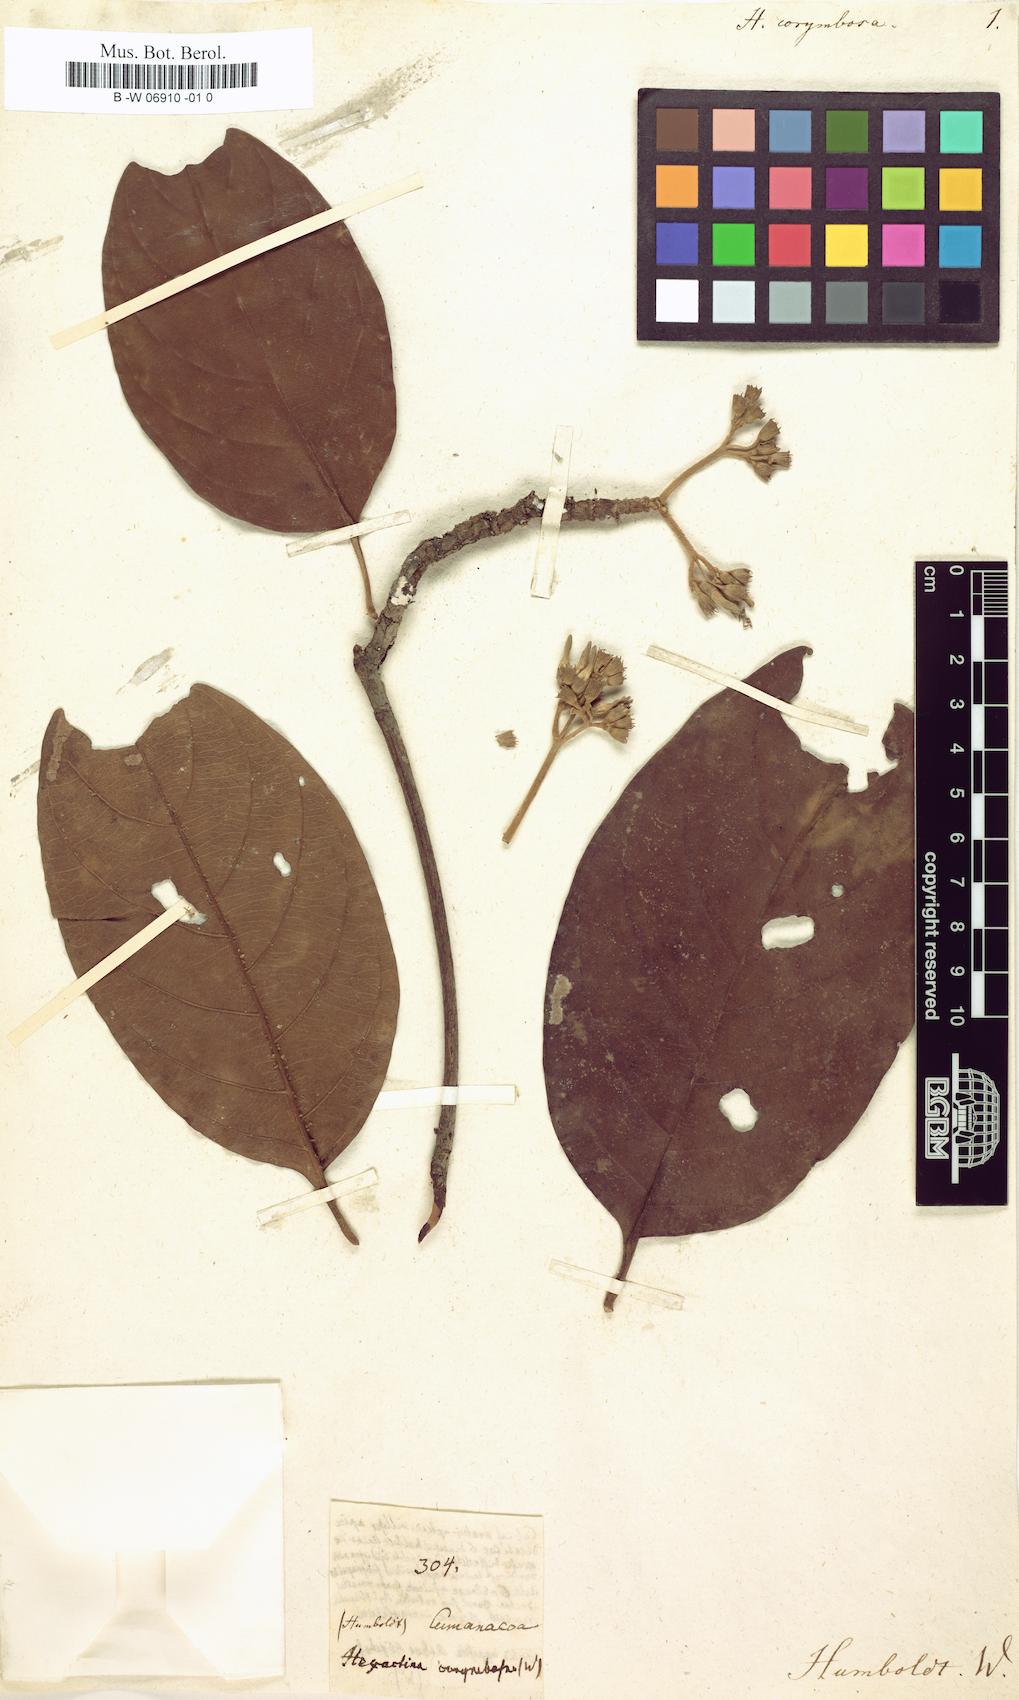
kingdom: Plantae
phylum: Tracheophyta
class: Magnoliopsida
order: Gentianales
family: Rubiaceae
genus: Amaioua
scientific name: Amaioua glomerulata
